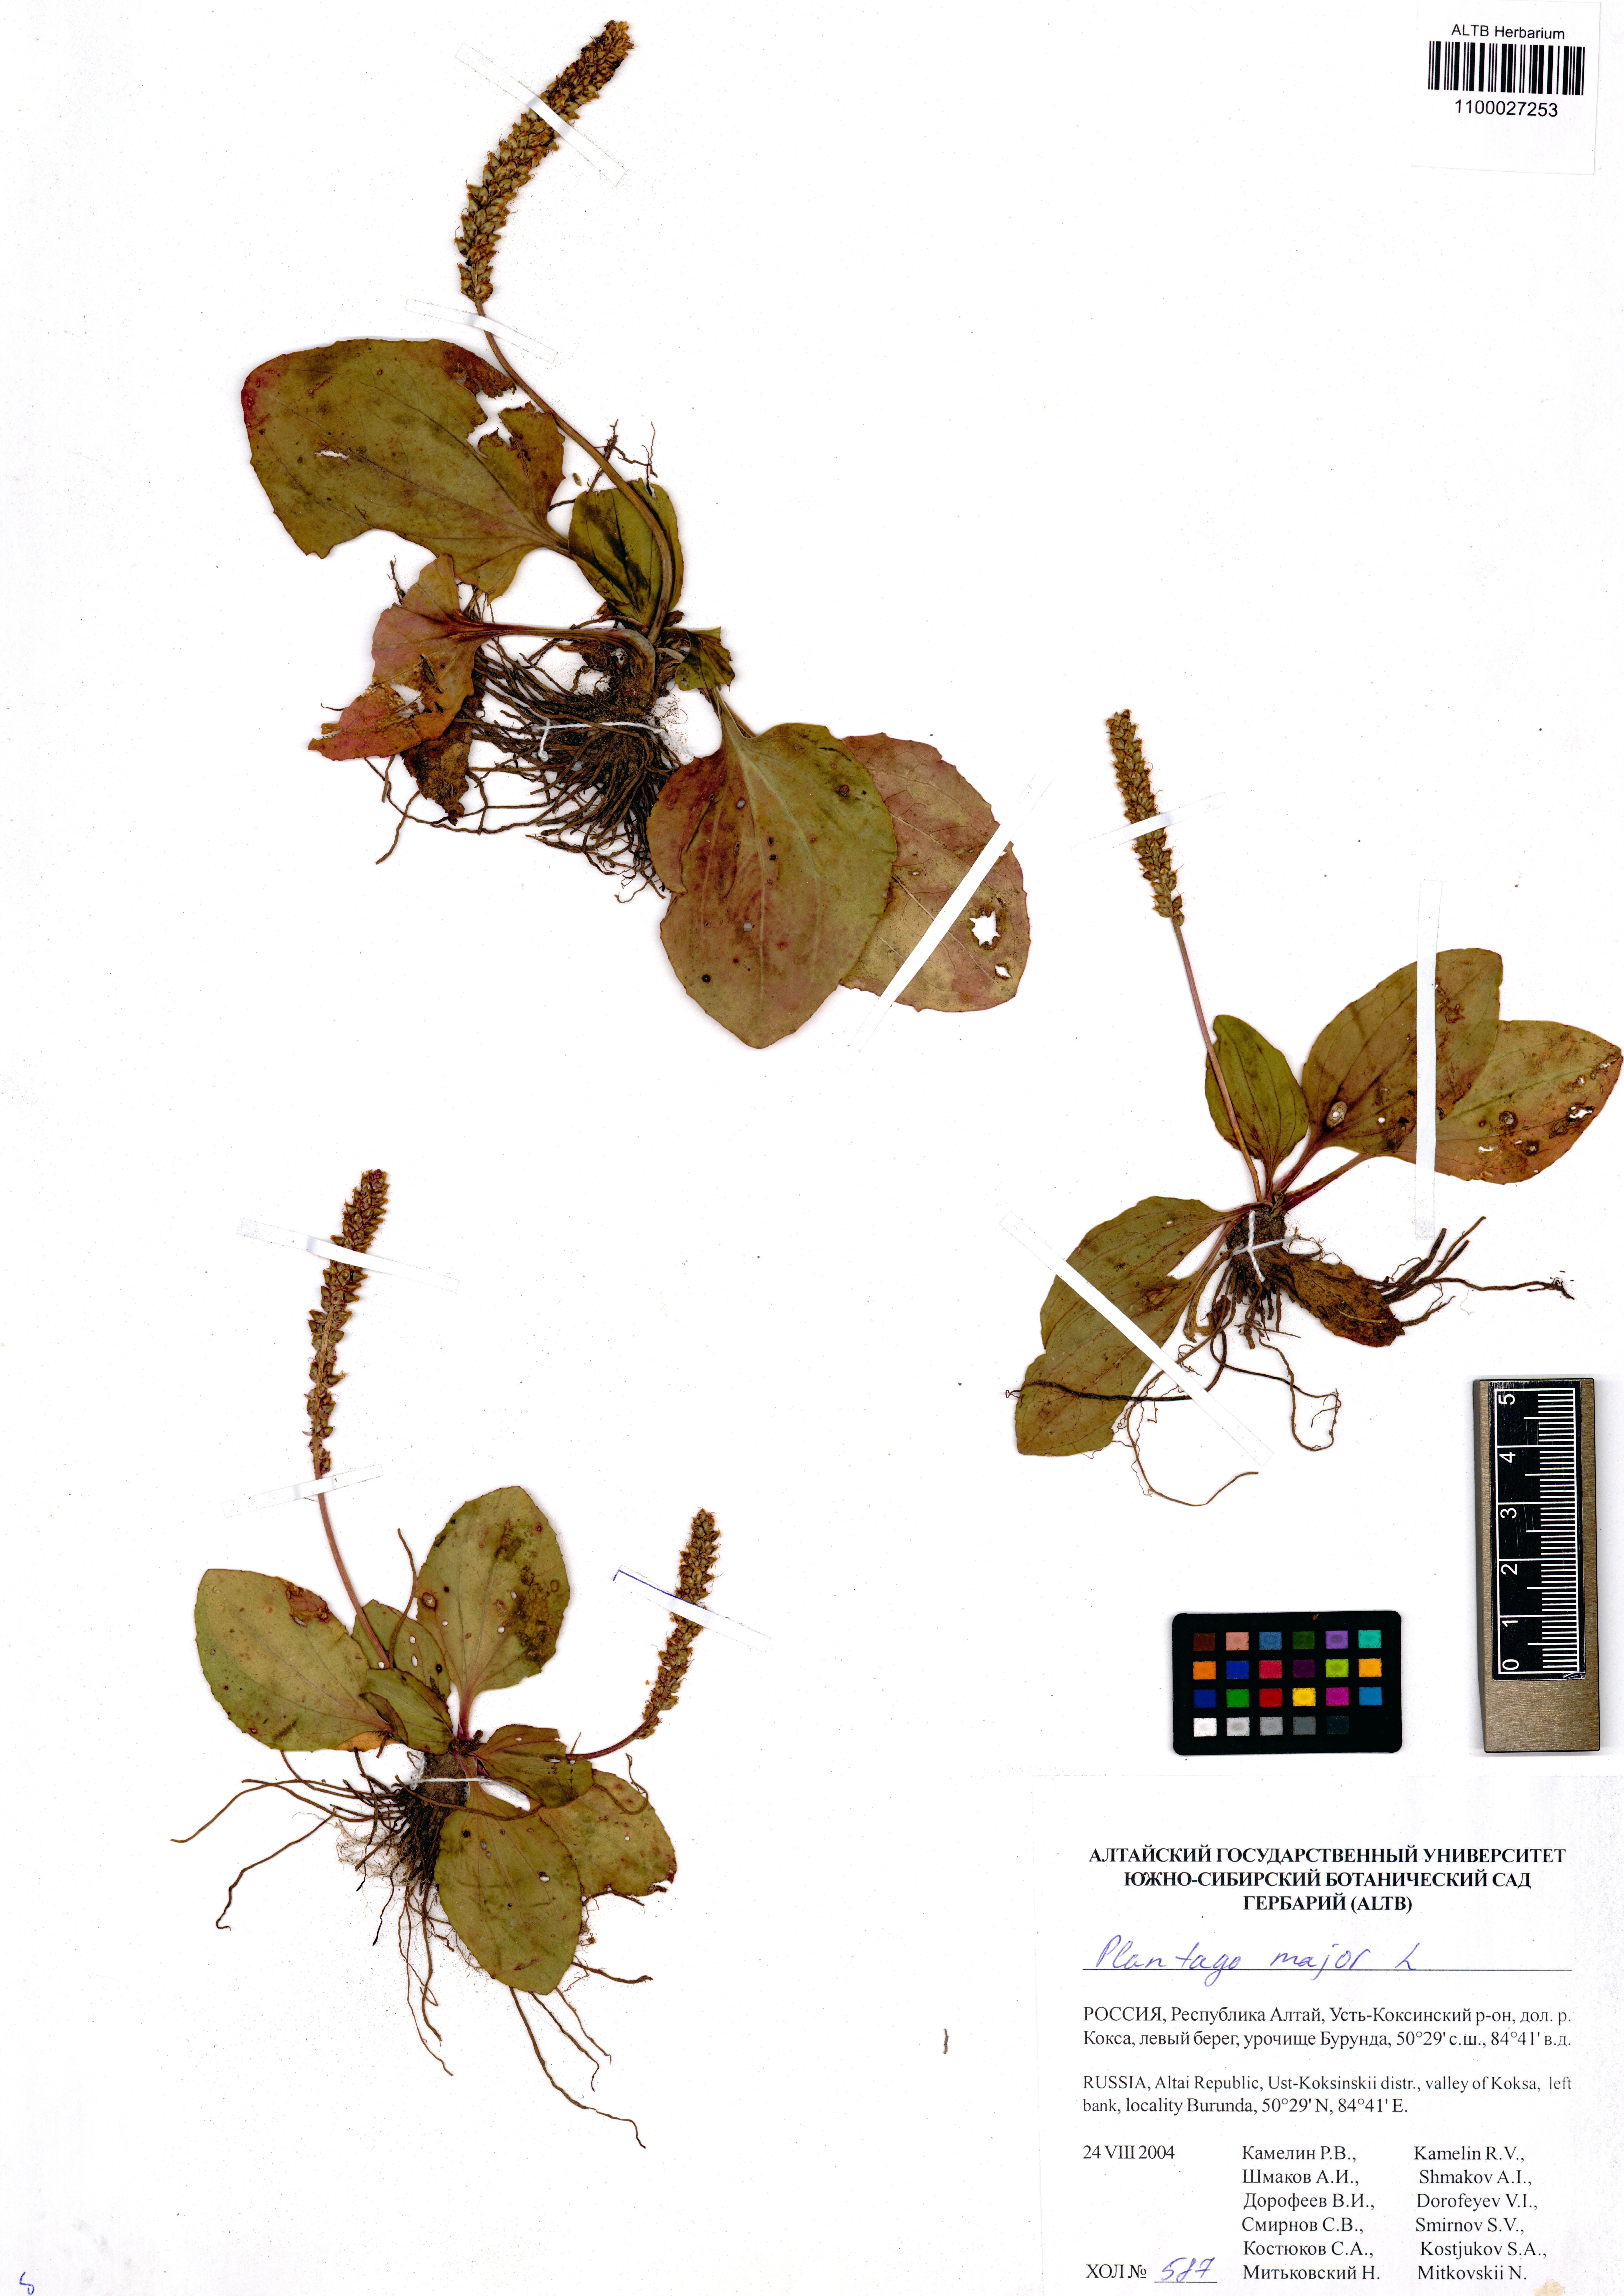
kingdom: Plantae
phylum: Tracheophyta
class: Magnoliopsida
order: Lamiales
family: Plantaginaceae
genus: Plantago
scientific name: Plantago major
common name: Common plantain
